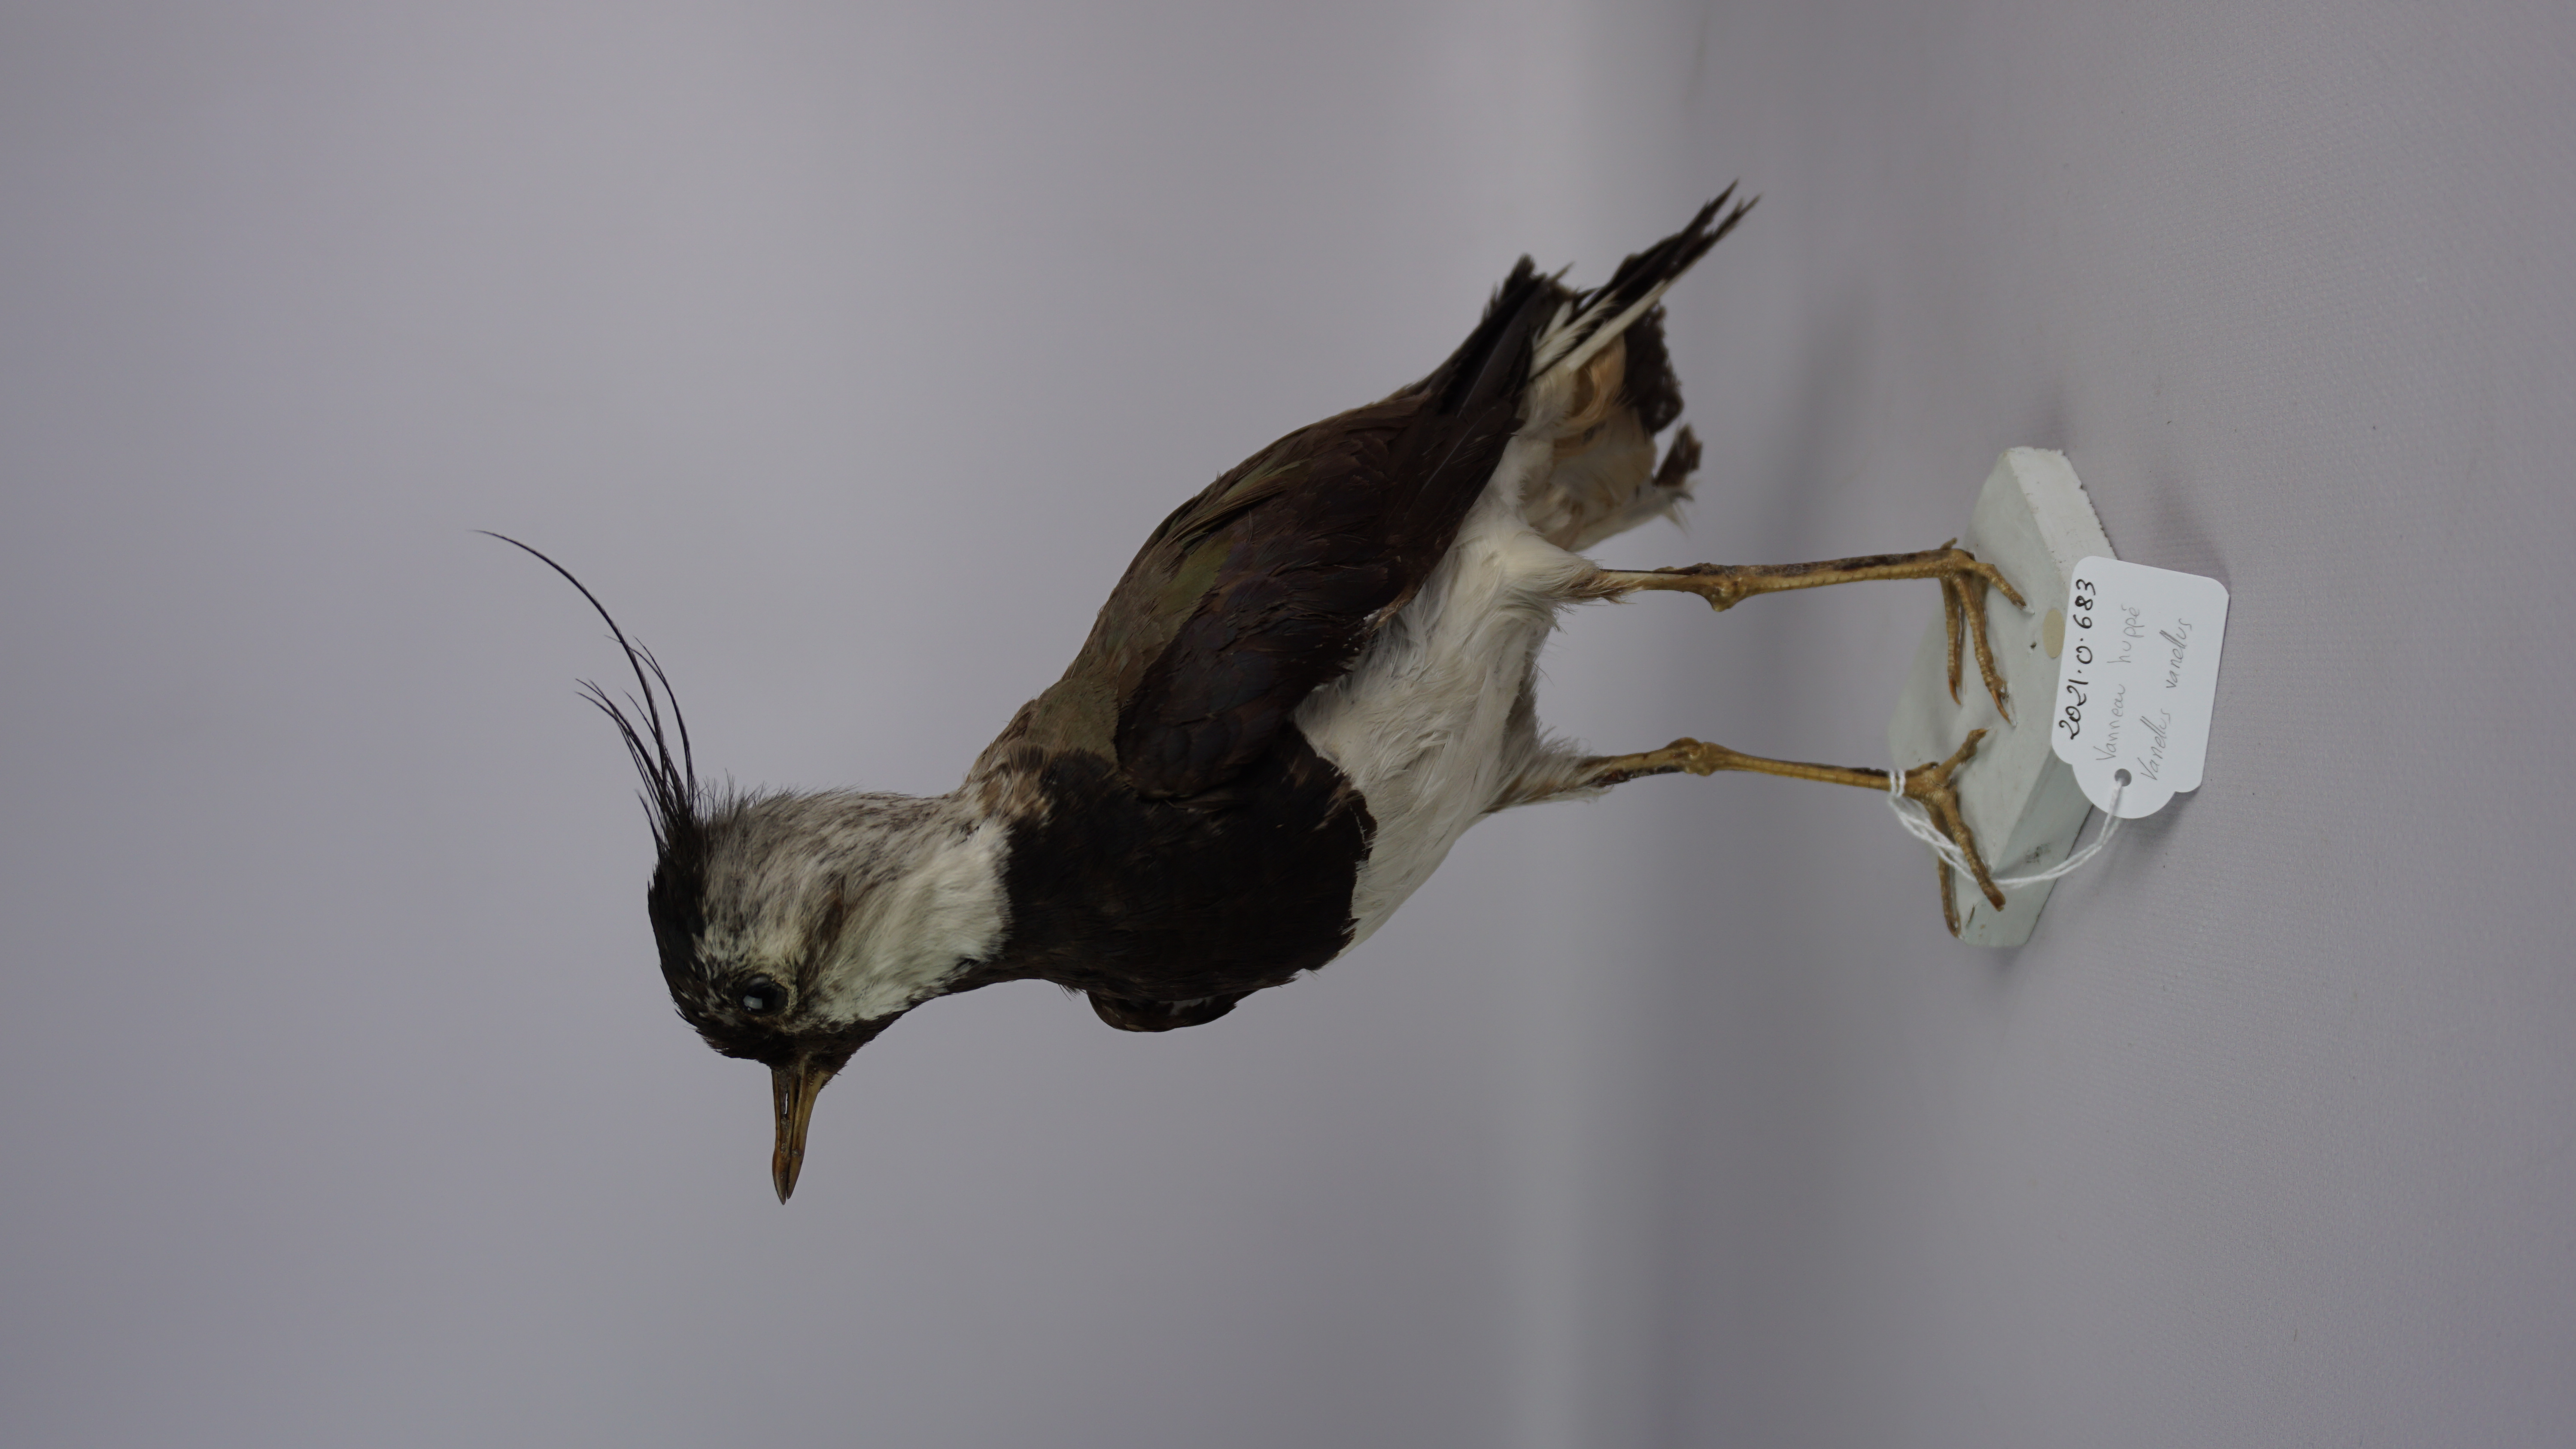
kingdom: Animalia
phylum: Chordata
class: Aves
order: Charadriiformes
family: Charadriidae
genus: Vanellus
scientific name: Vanellus vanellus
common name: Northern lapwing
